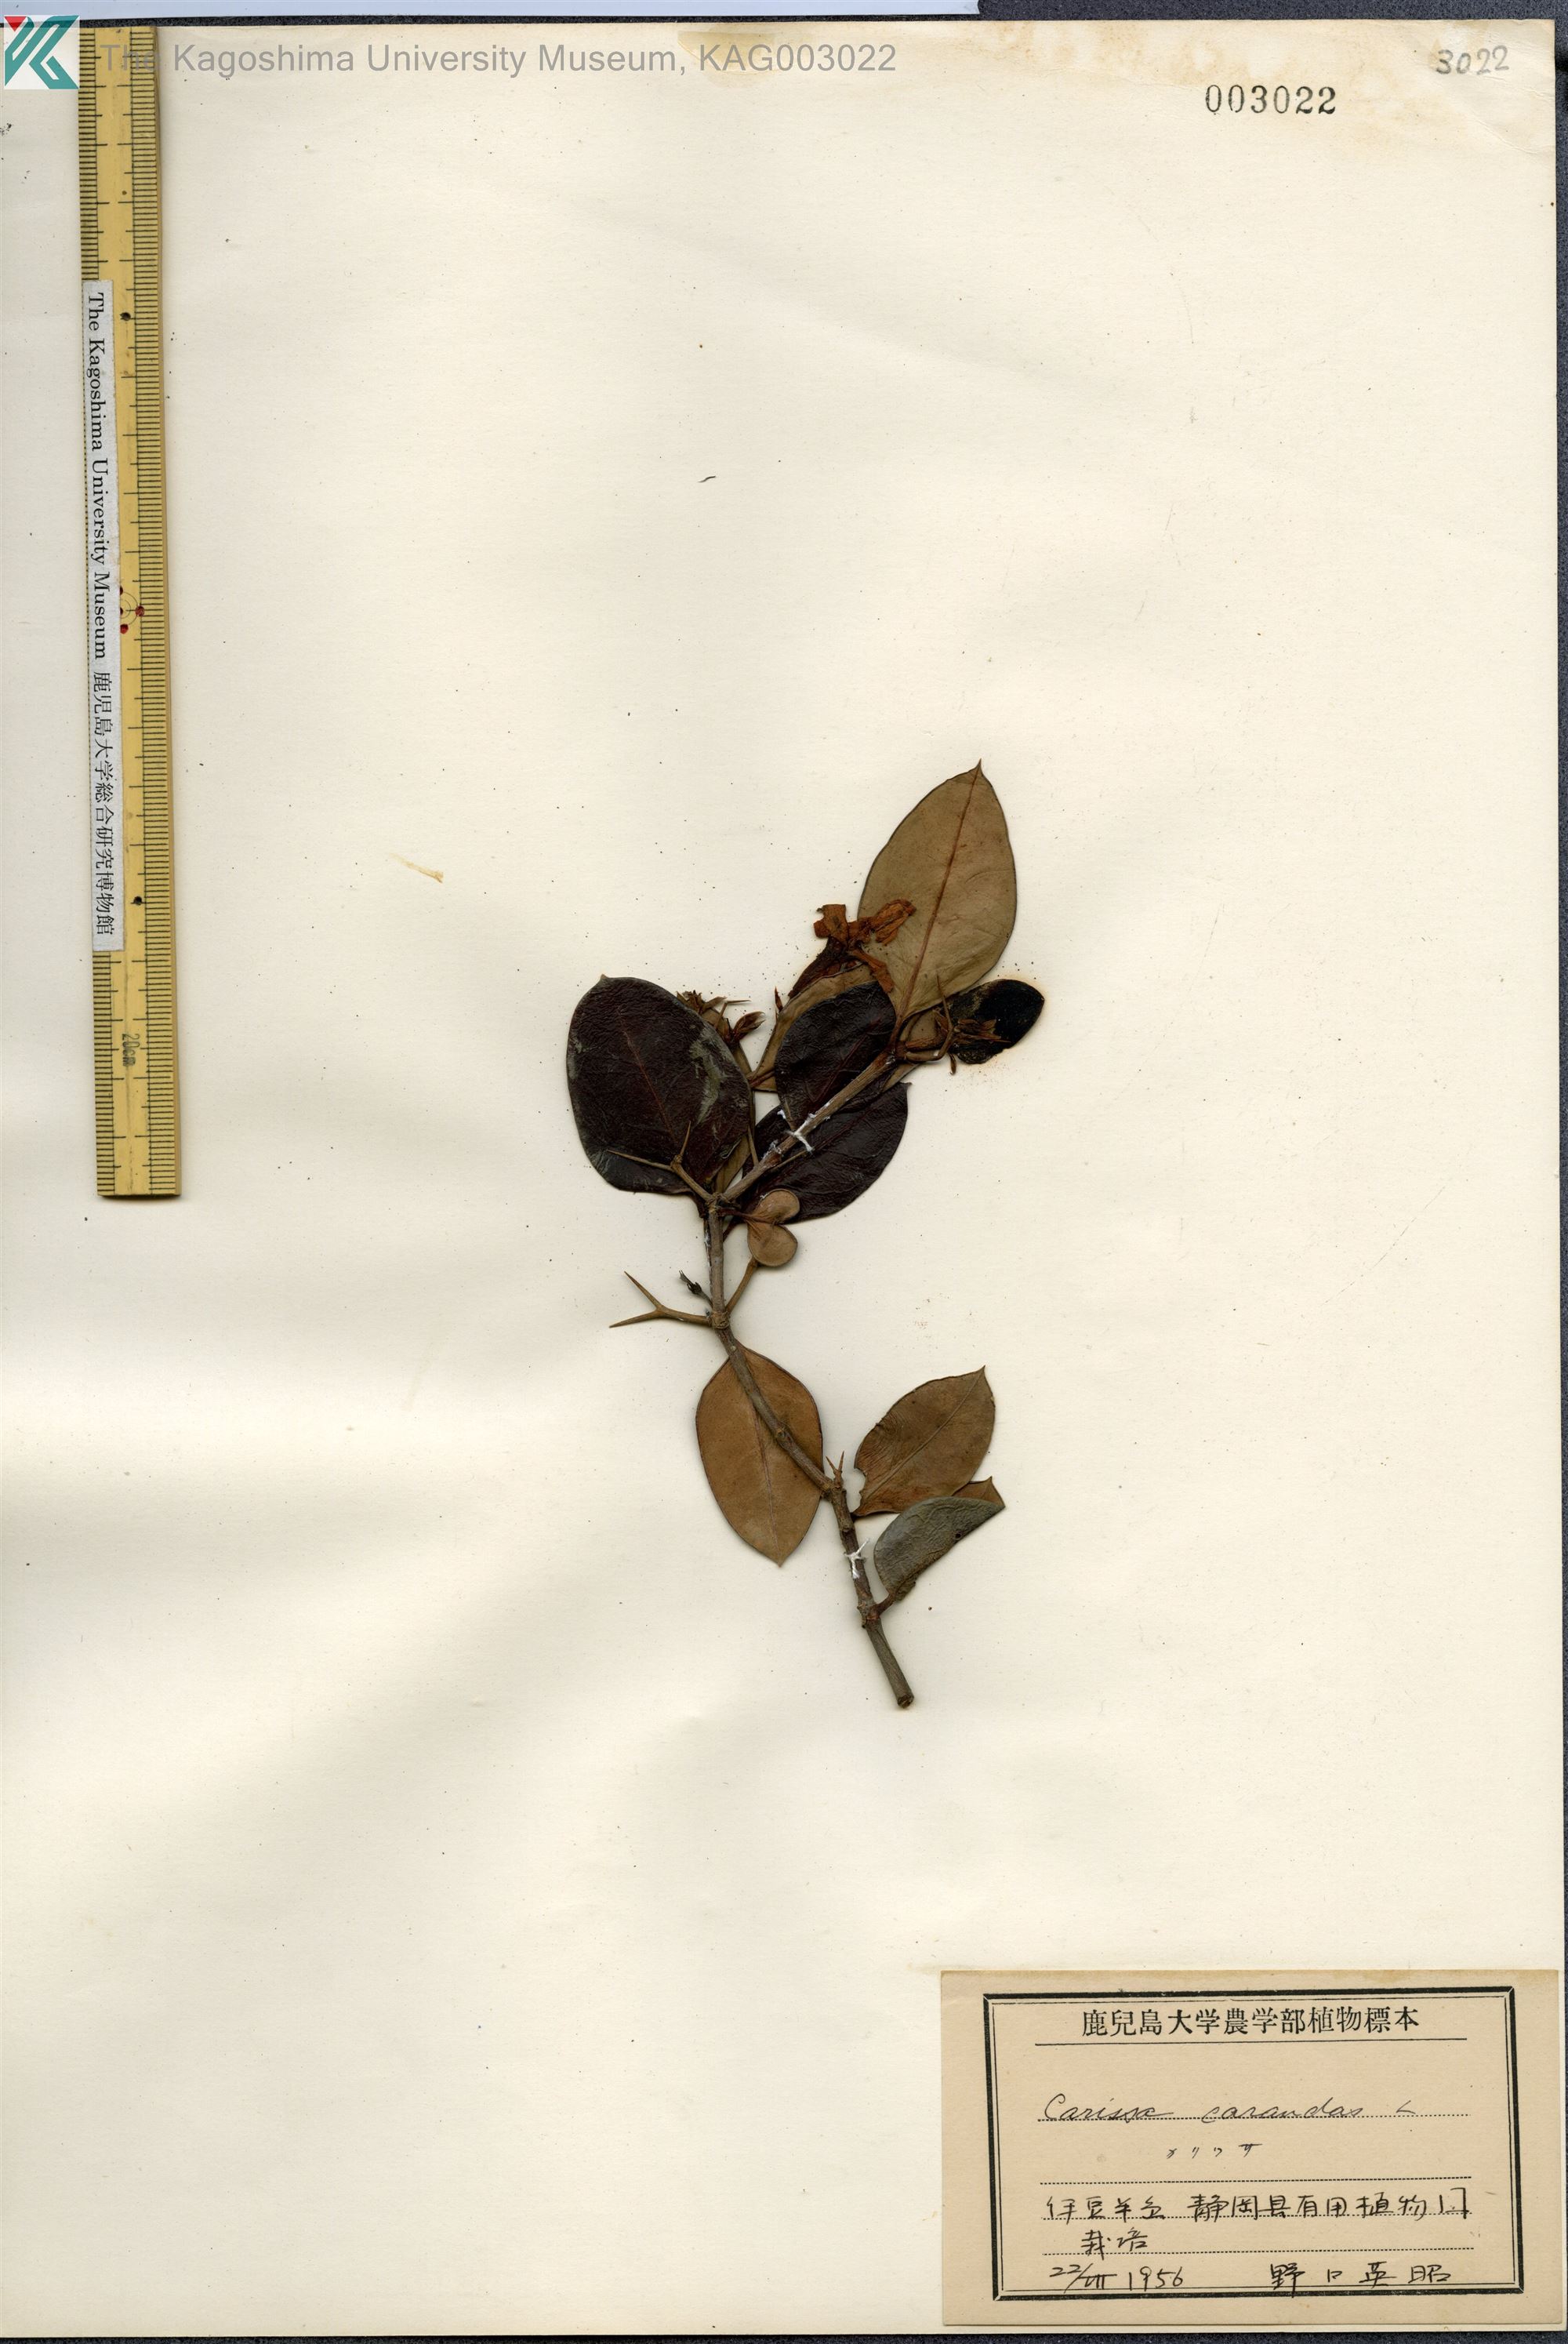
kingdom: Plantae
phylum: Tracheophyta
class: Magnoliopsida
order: Gentianales
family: Apocynaceae
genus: Carissa
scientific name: Carissa carandas
